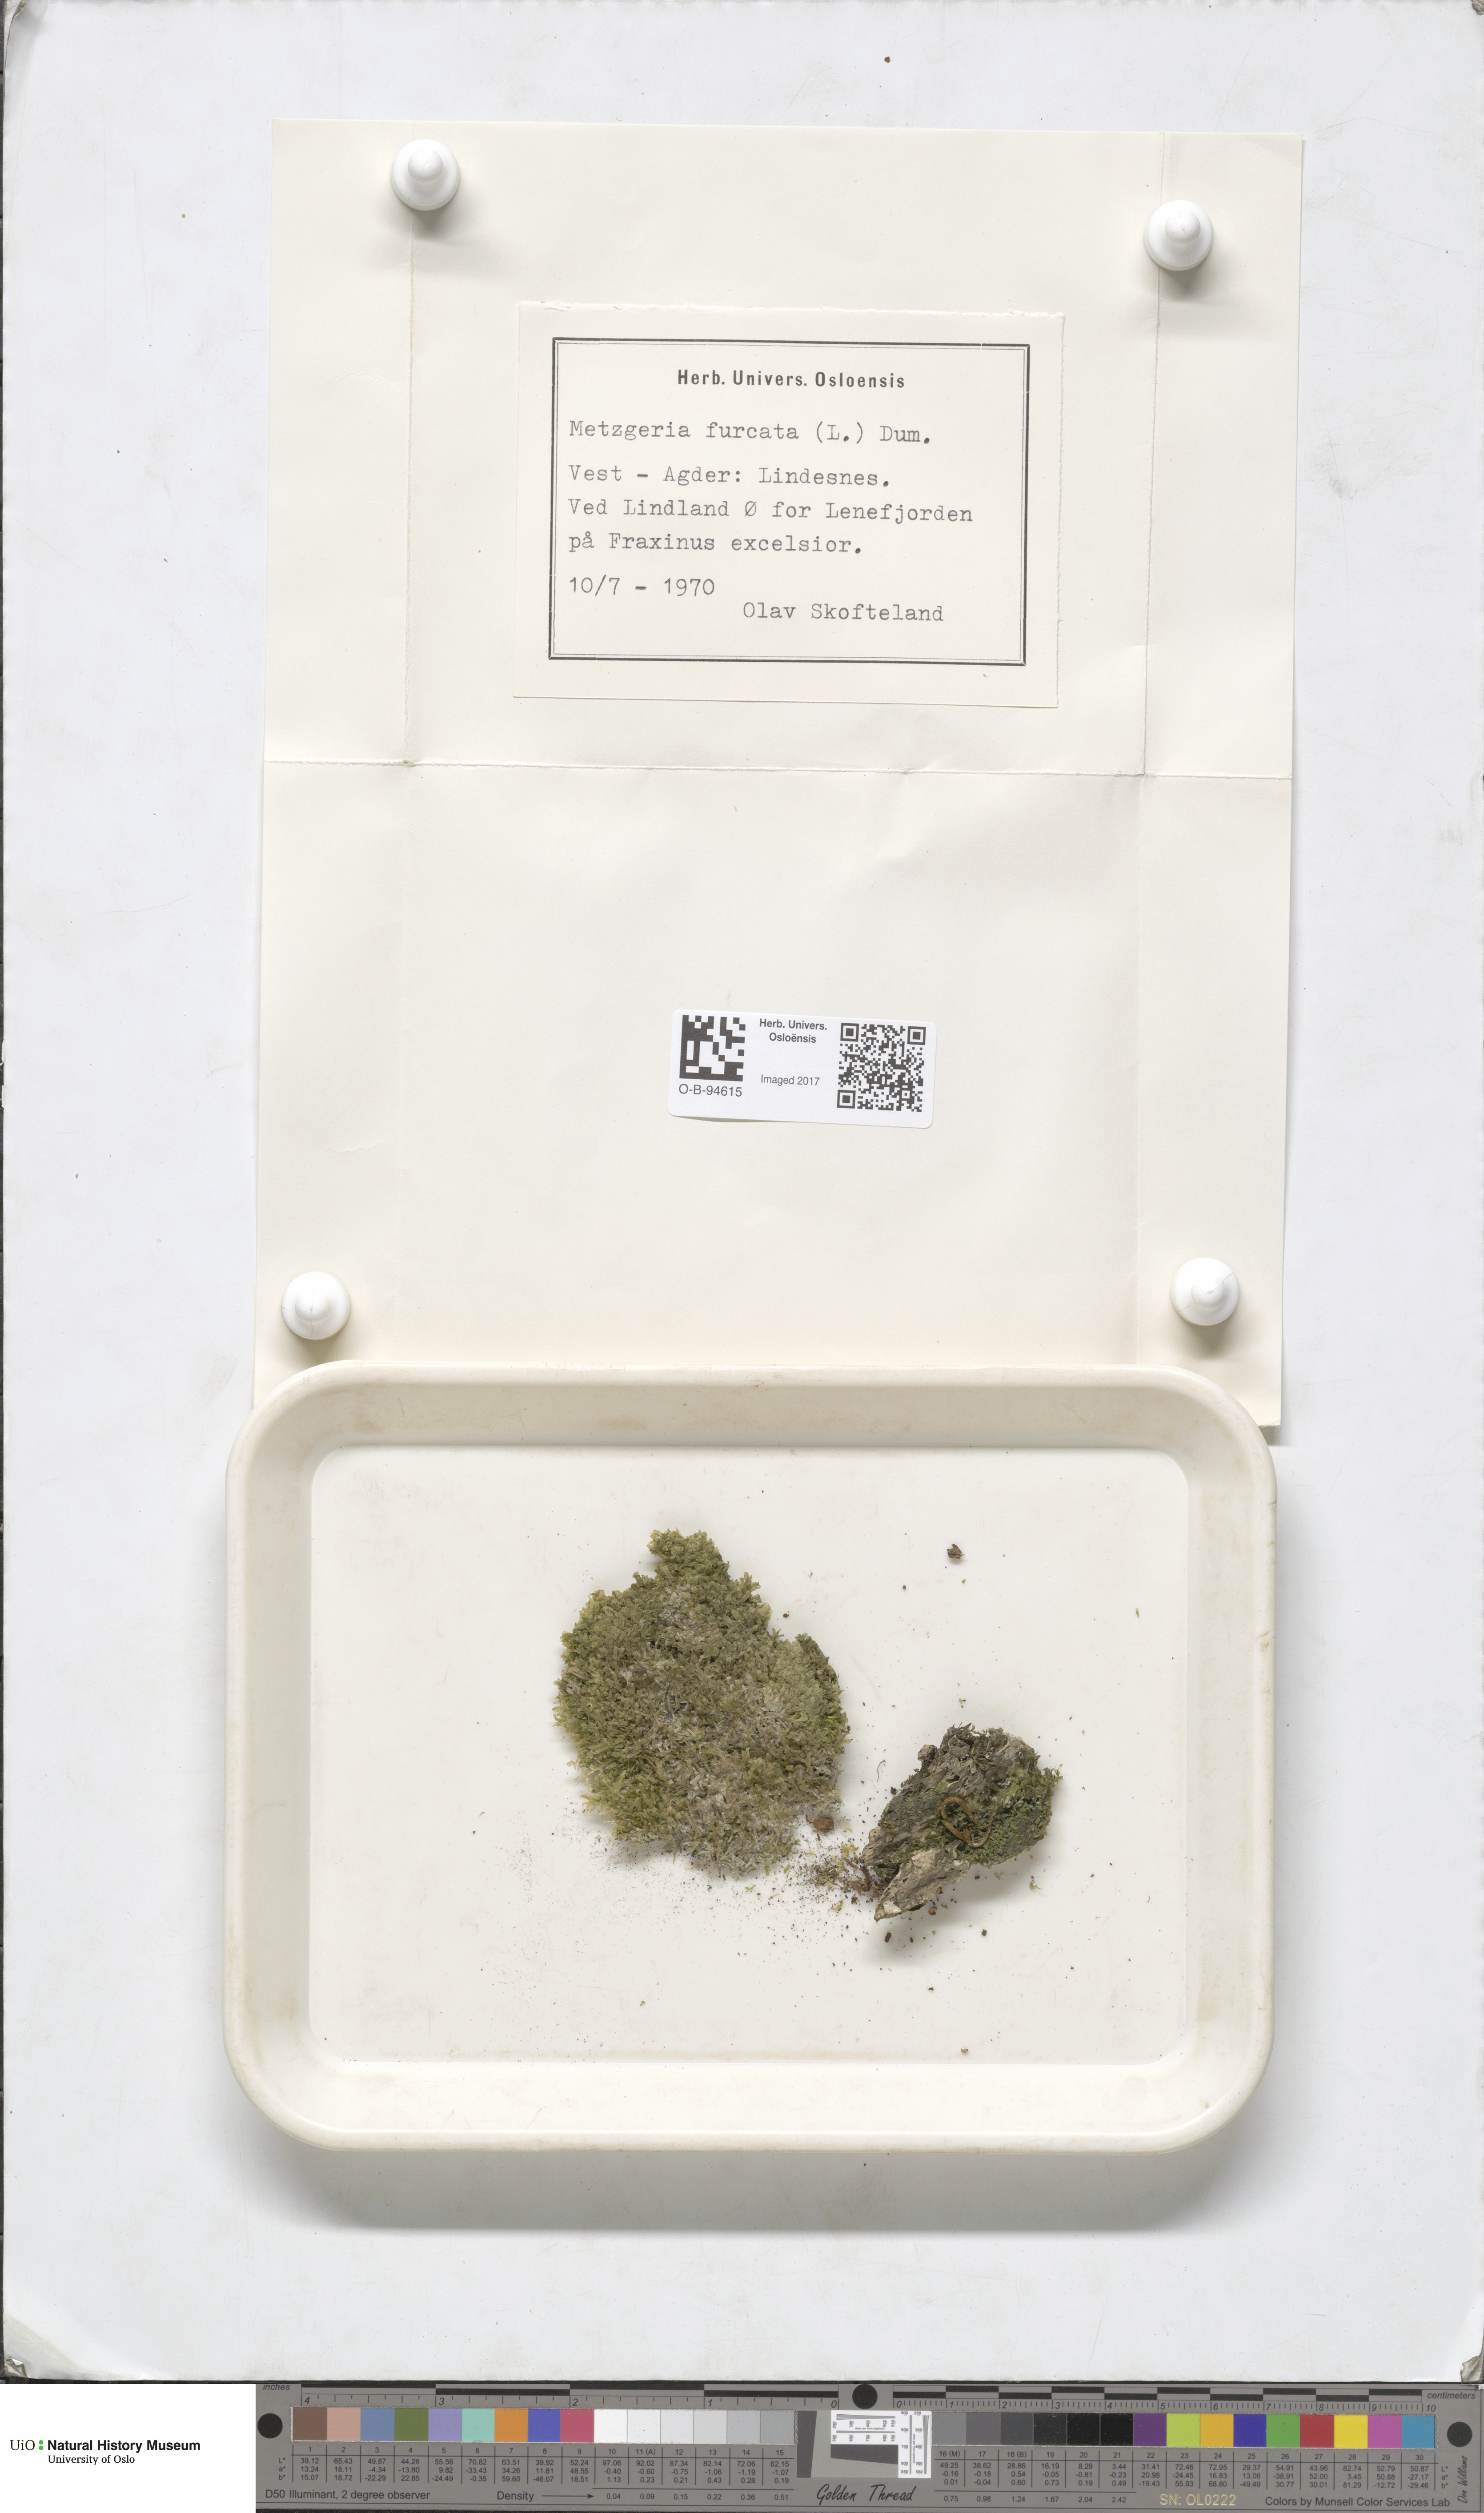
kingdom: Plantae
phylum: Marchantiophyta
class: Jungermanniopsida
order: Metzgeriales
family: Metzgeriaceae
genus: Metzgeria
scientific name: Metzgeria furcata
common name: Forked veilwort
